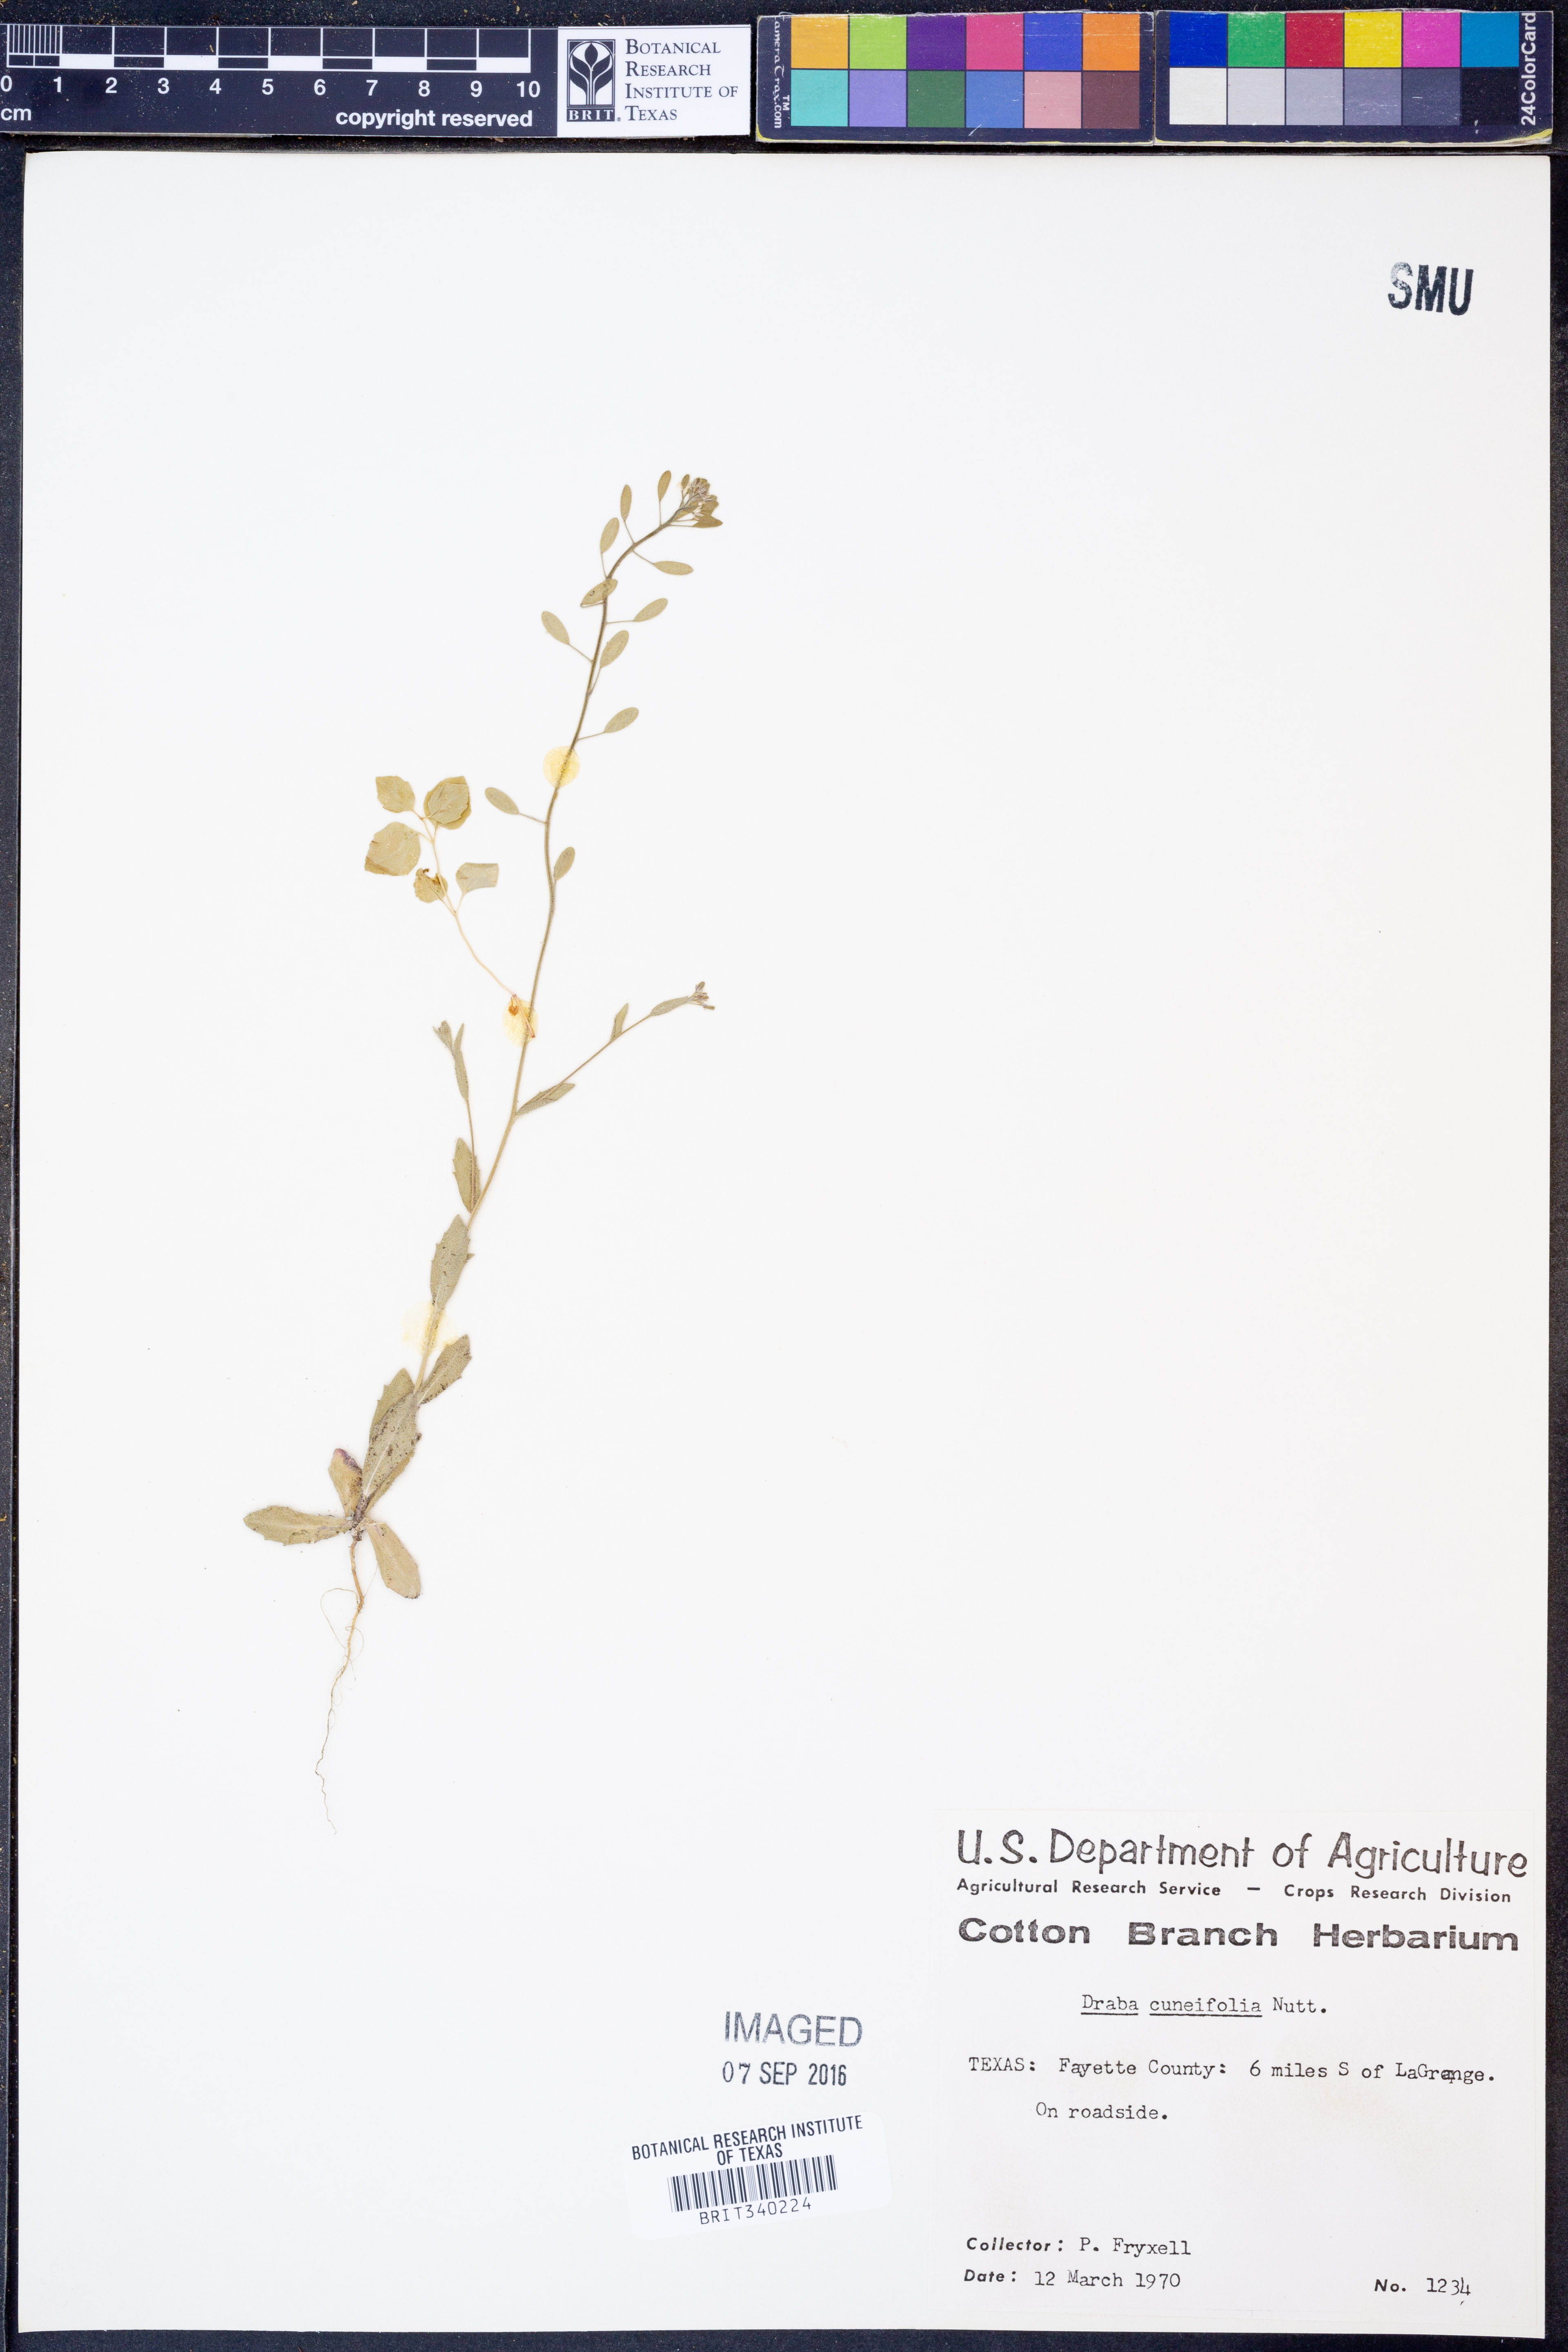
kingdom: Plantae
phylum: Tracheophyta
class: Magnoliopsida
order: Brassicales
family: Brassicaceae
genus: Tomostima
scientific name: Tomostima cuneifolia
